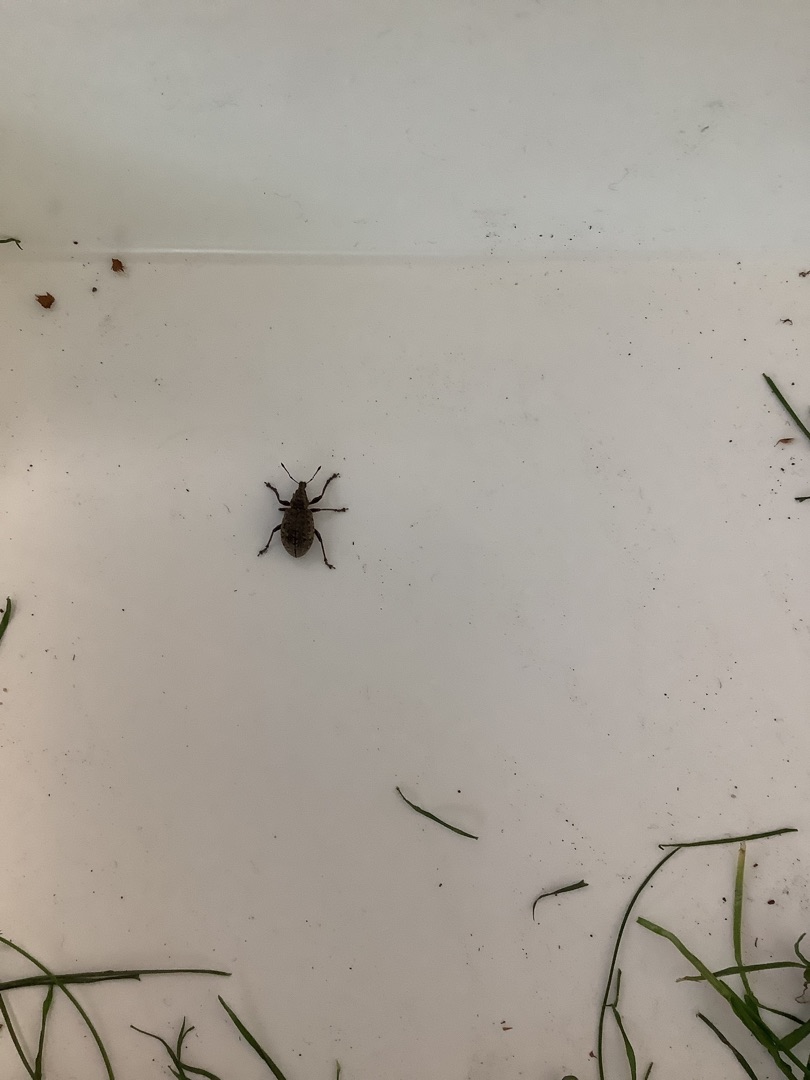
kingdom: Animalia
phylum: Arthropoda
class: Insecta
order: Coleoptera
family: Curculionidae
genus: Liophloeus
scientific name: Liophloeus tessulatus
